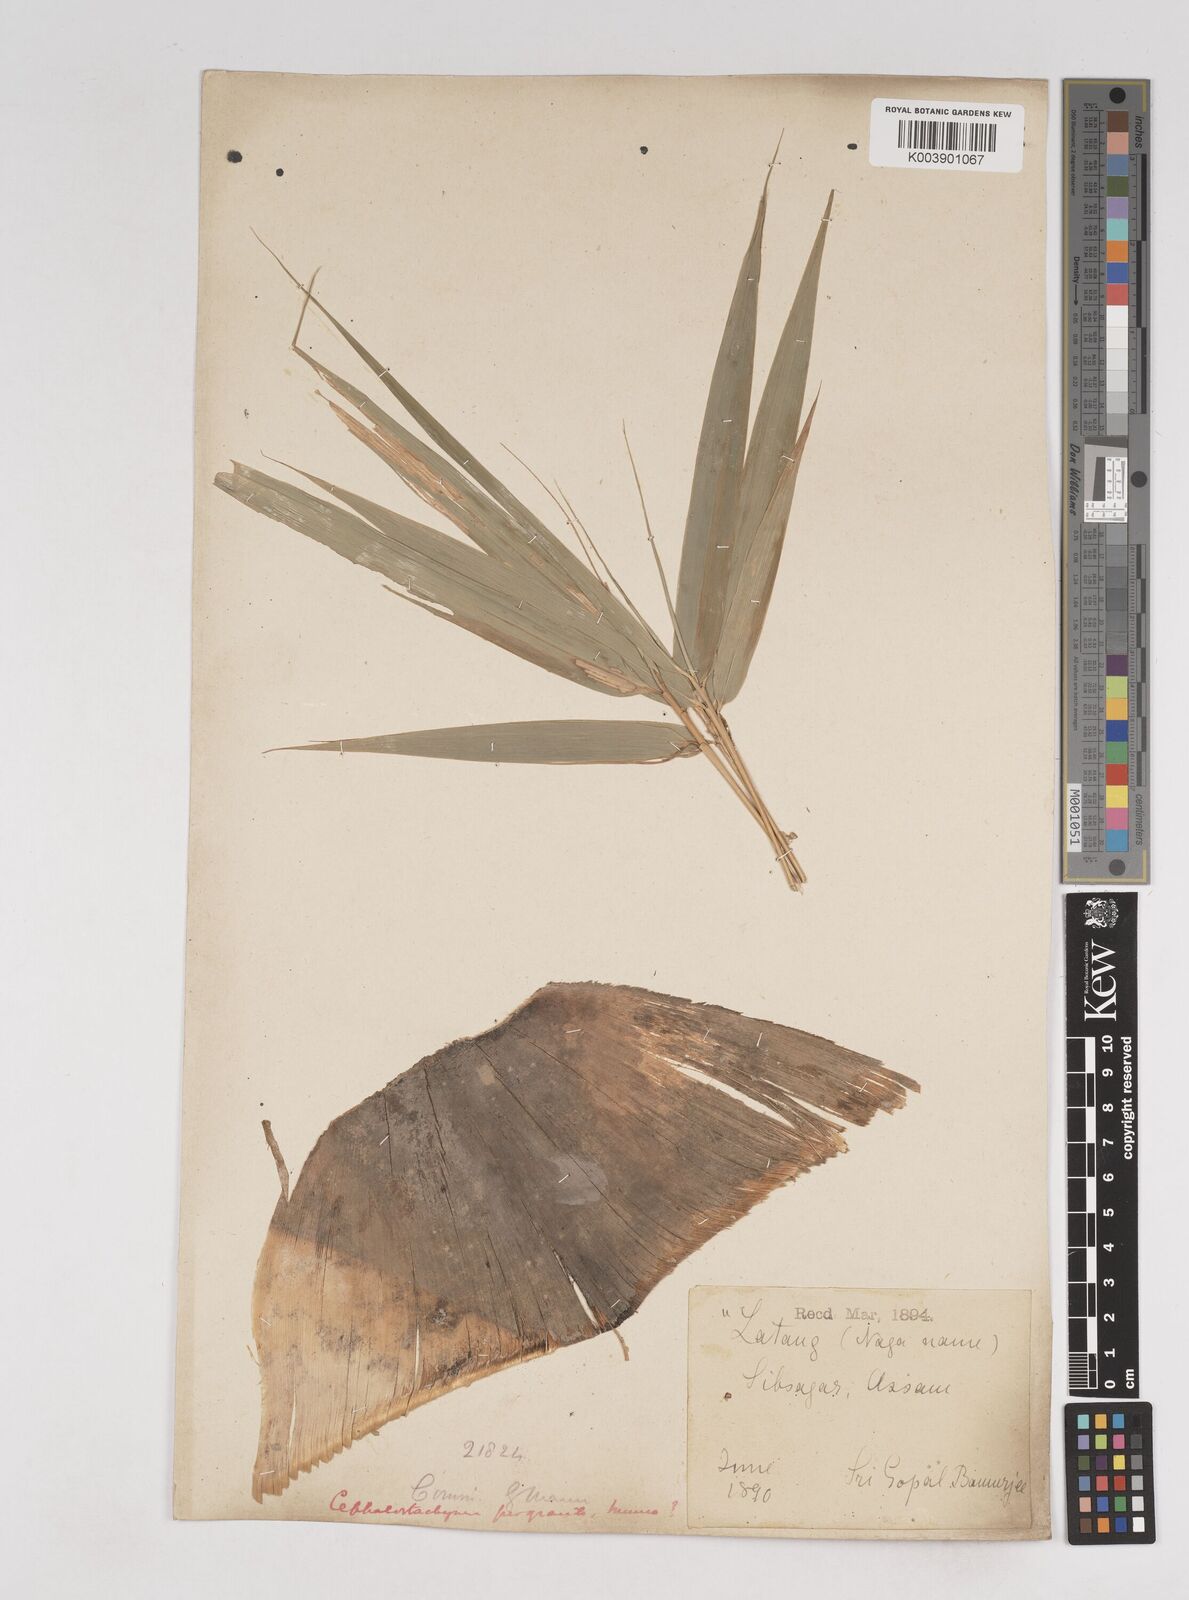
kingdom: Plantae
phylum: Tracheophyta
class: Liliopsida
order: Poales
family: Poaceae
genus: Schizostachyum
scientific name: Schizostachyum pergracile
